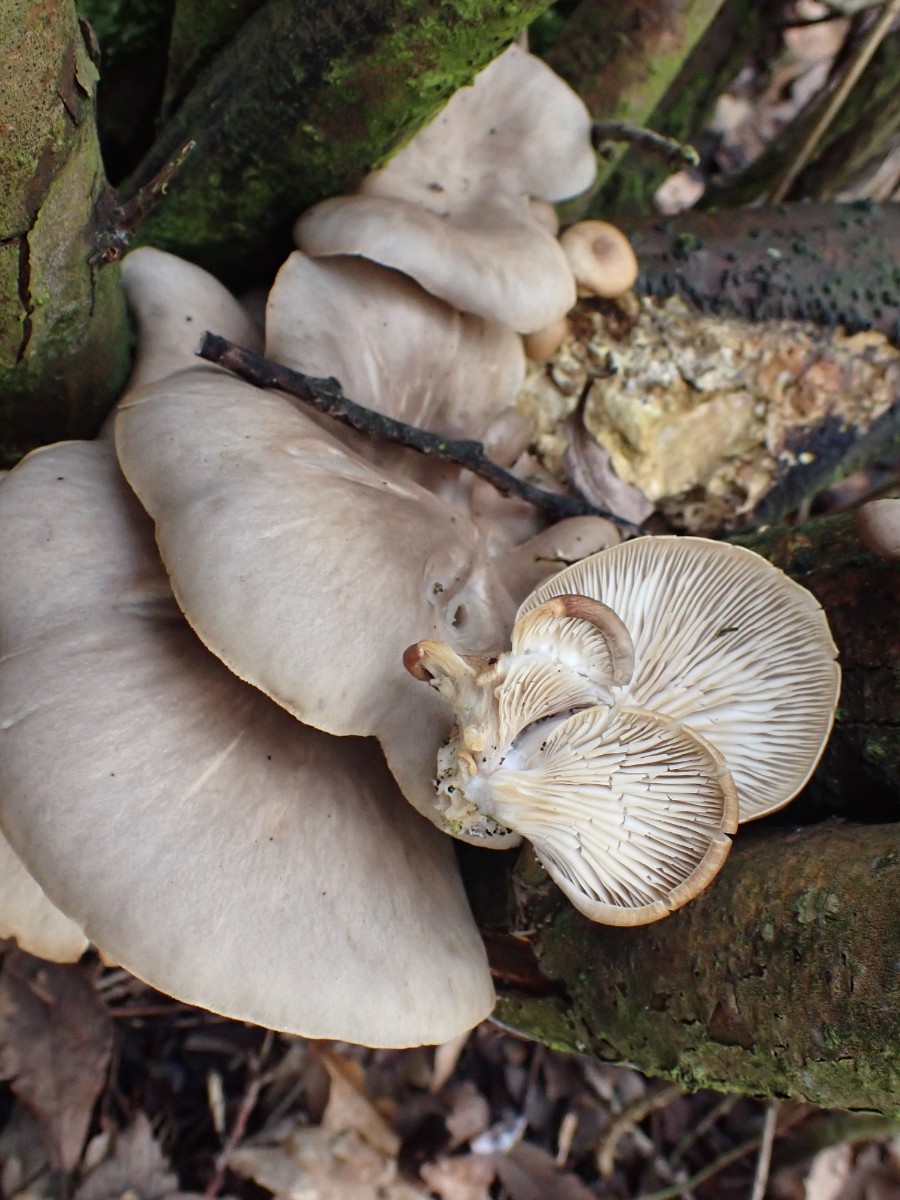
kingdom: Fungi
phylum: Basidiomycota
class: Agaricomycetes
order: Agaricales
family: Pleurotaceae
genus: Pleurotus
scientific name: Pleurotus ostreatus
